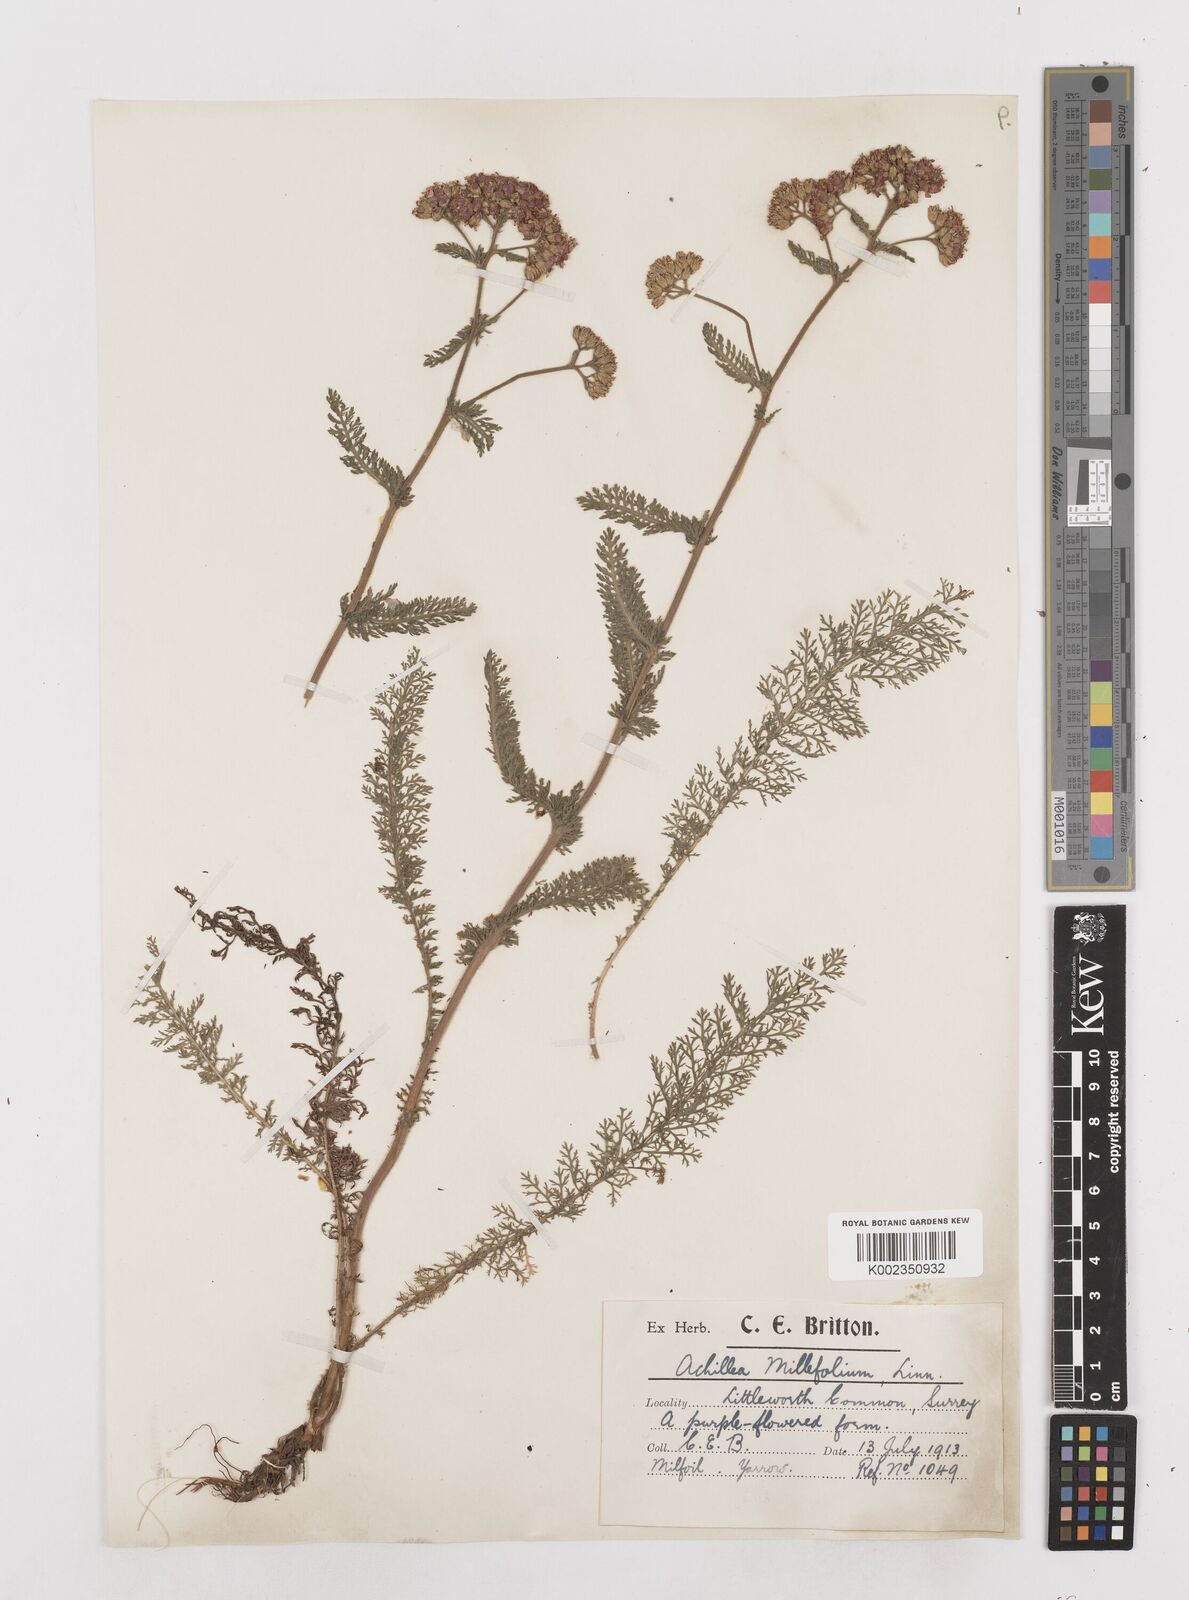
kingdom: Plantae
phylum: Tracheophyta
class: Magnoliopsida
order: Asterales
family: Asteraceae
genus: Achillea
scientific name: Achillea distans
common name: Tall yarrow
